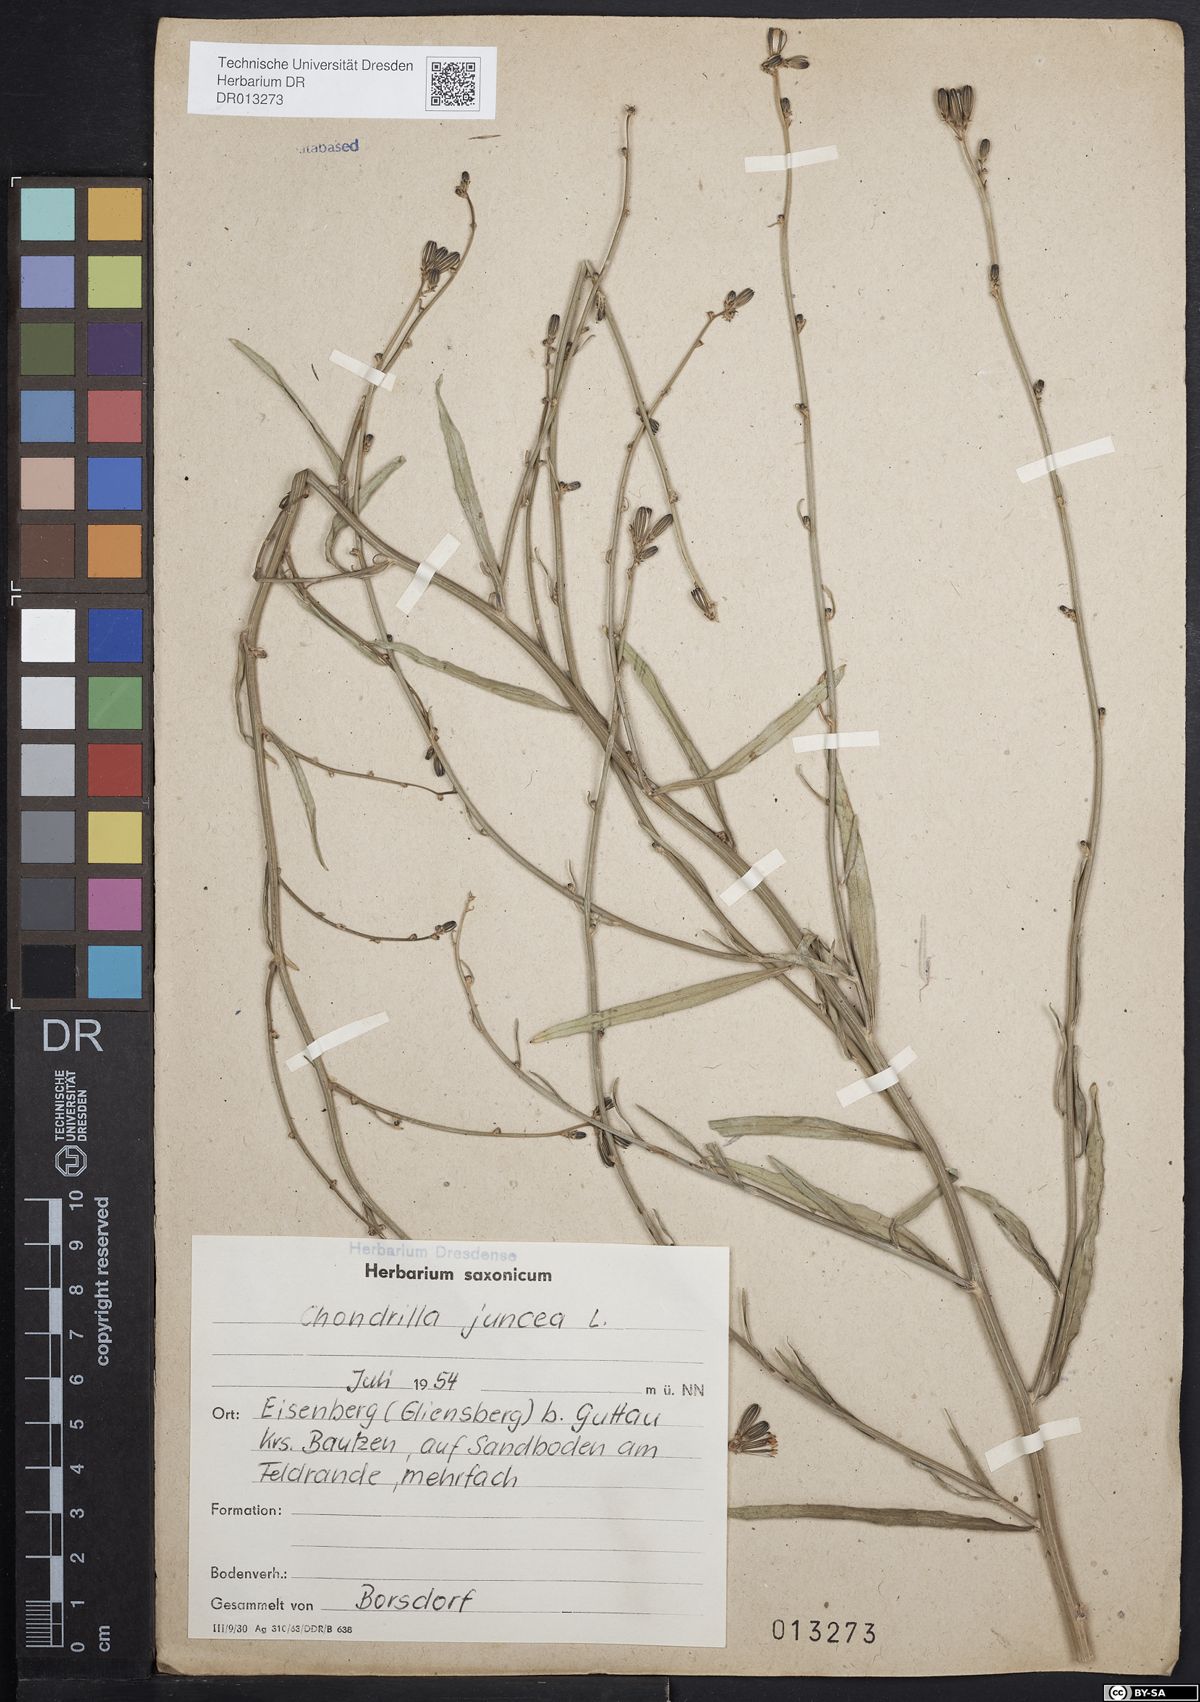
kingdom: Plantae
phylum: Tracheophyta
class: Magnoliopsida
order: Asterales
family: Asteraceae
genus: Chondrilla
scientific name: Chondrilla juncea
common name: Skeleton weed
